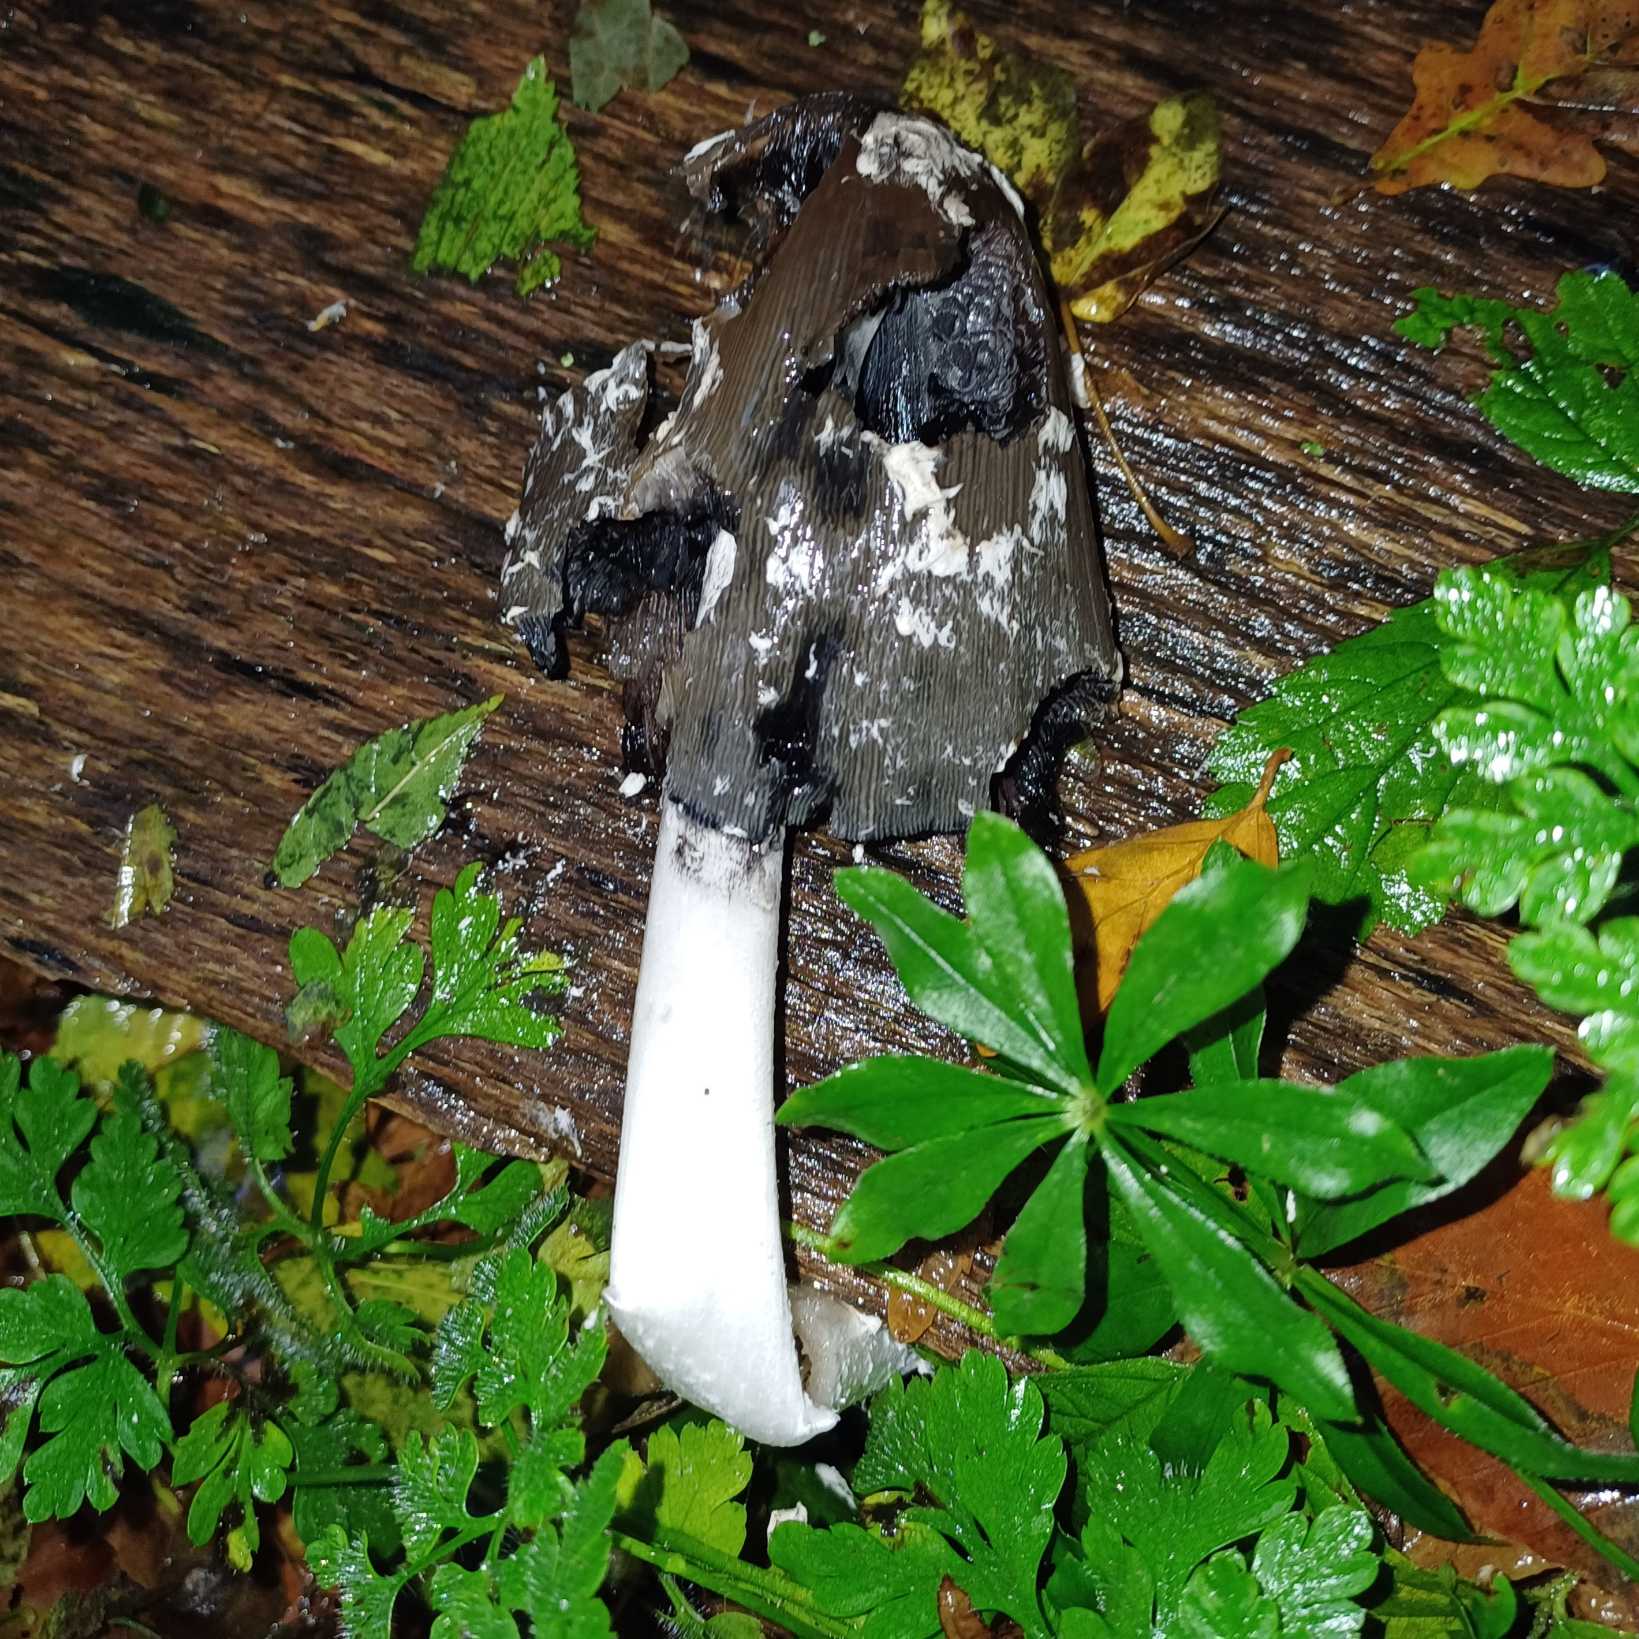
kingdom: Fungi
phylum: Basidiomycota
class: Agaricomycetes
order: Agaricales
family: Psathyrellaceae
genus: Coprinopsis
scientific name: Coprinopsis picacea
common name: Skade-blækhat
